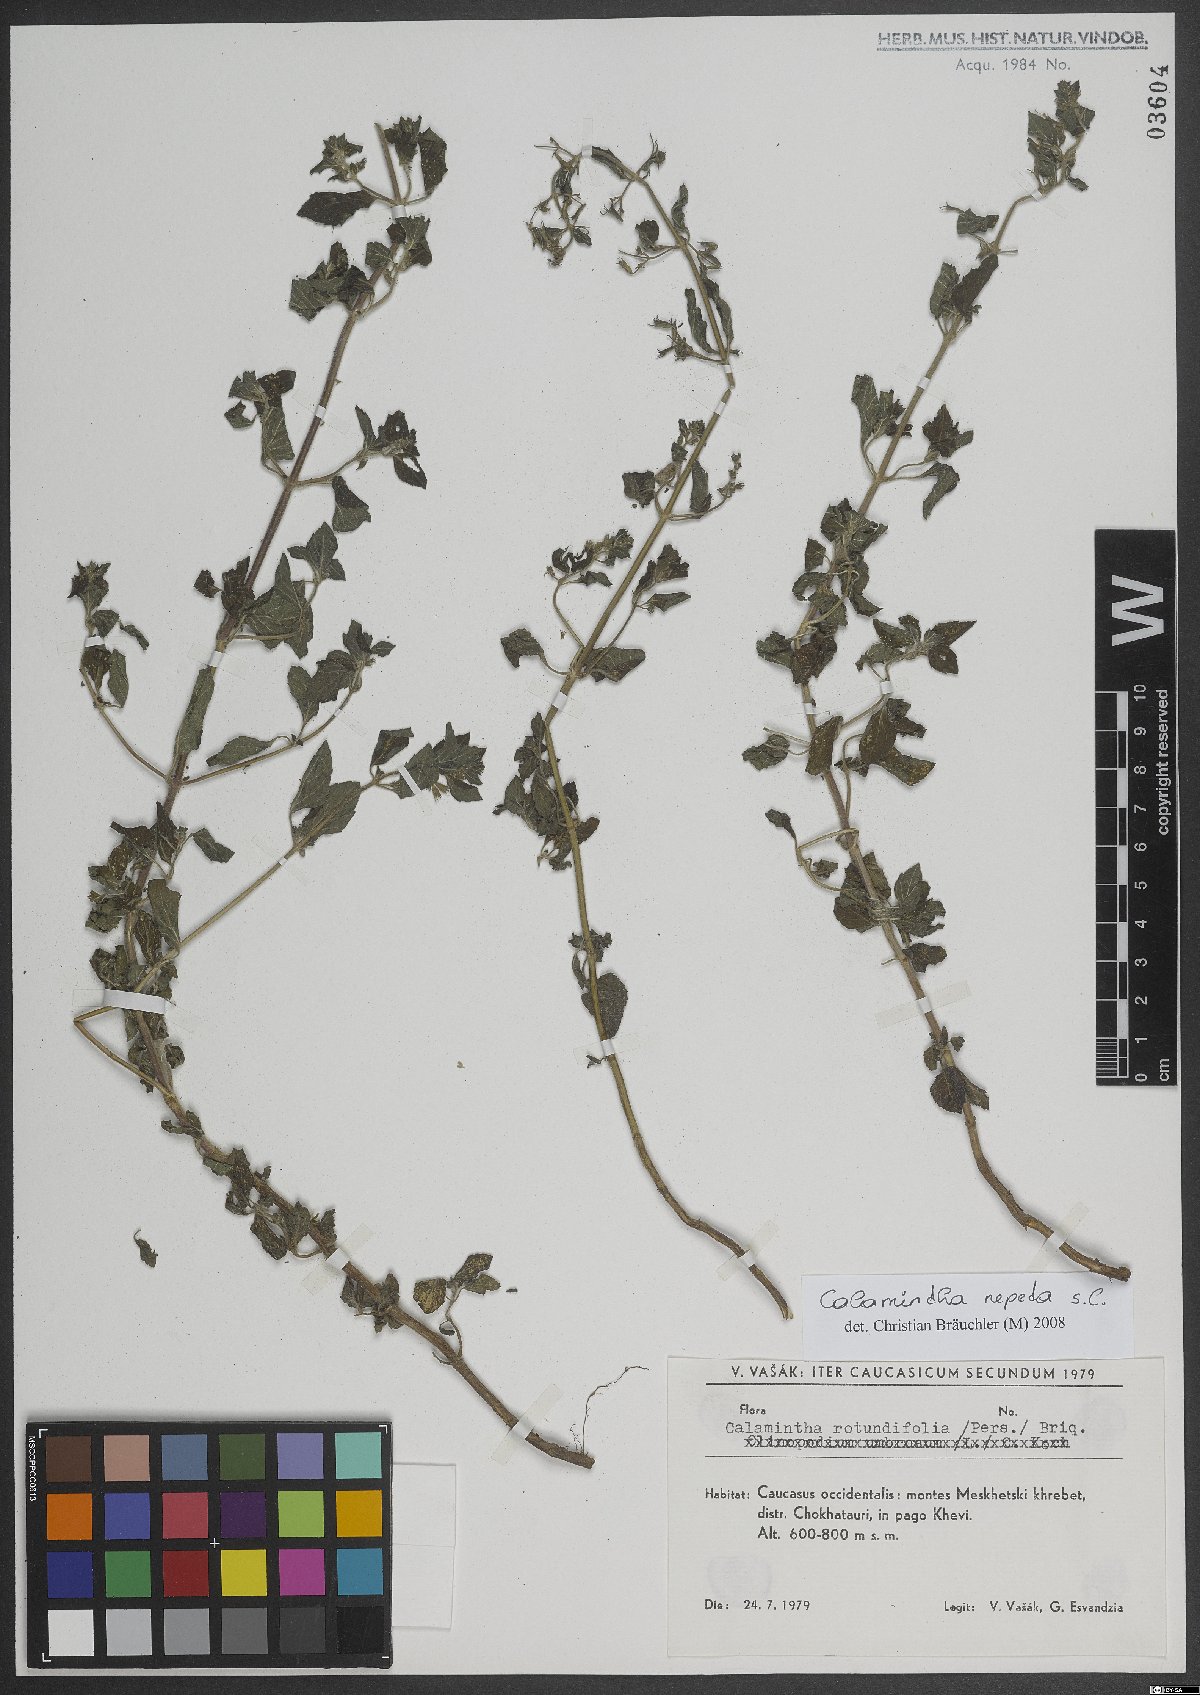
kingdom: Plantae
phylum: Tracheophyta
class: Magnoliopsida
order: Lamiales
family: Lamiaceae
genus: Clinopodium
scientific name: Clinopodium nepeta
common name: Lesser calamint
